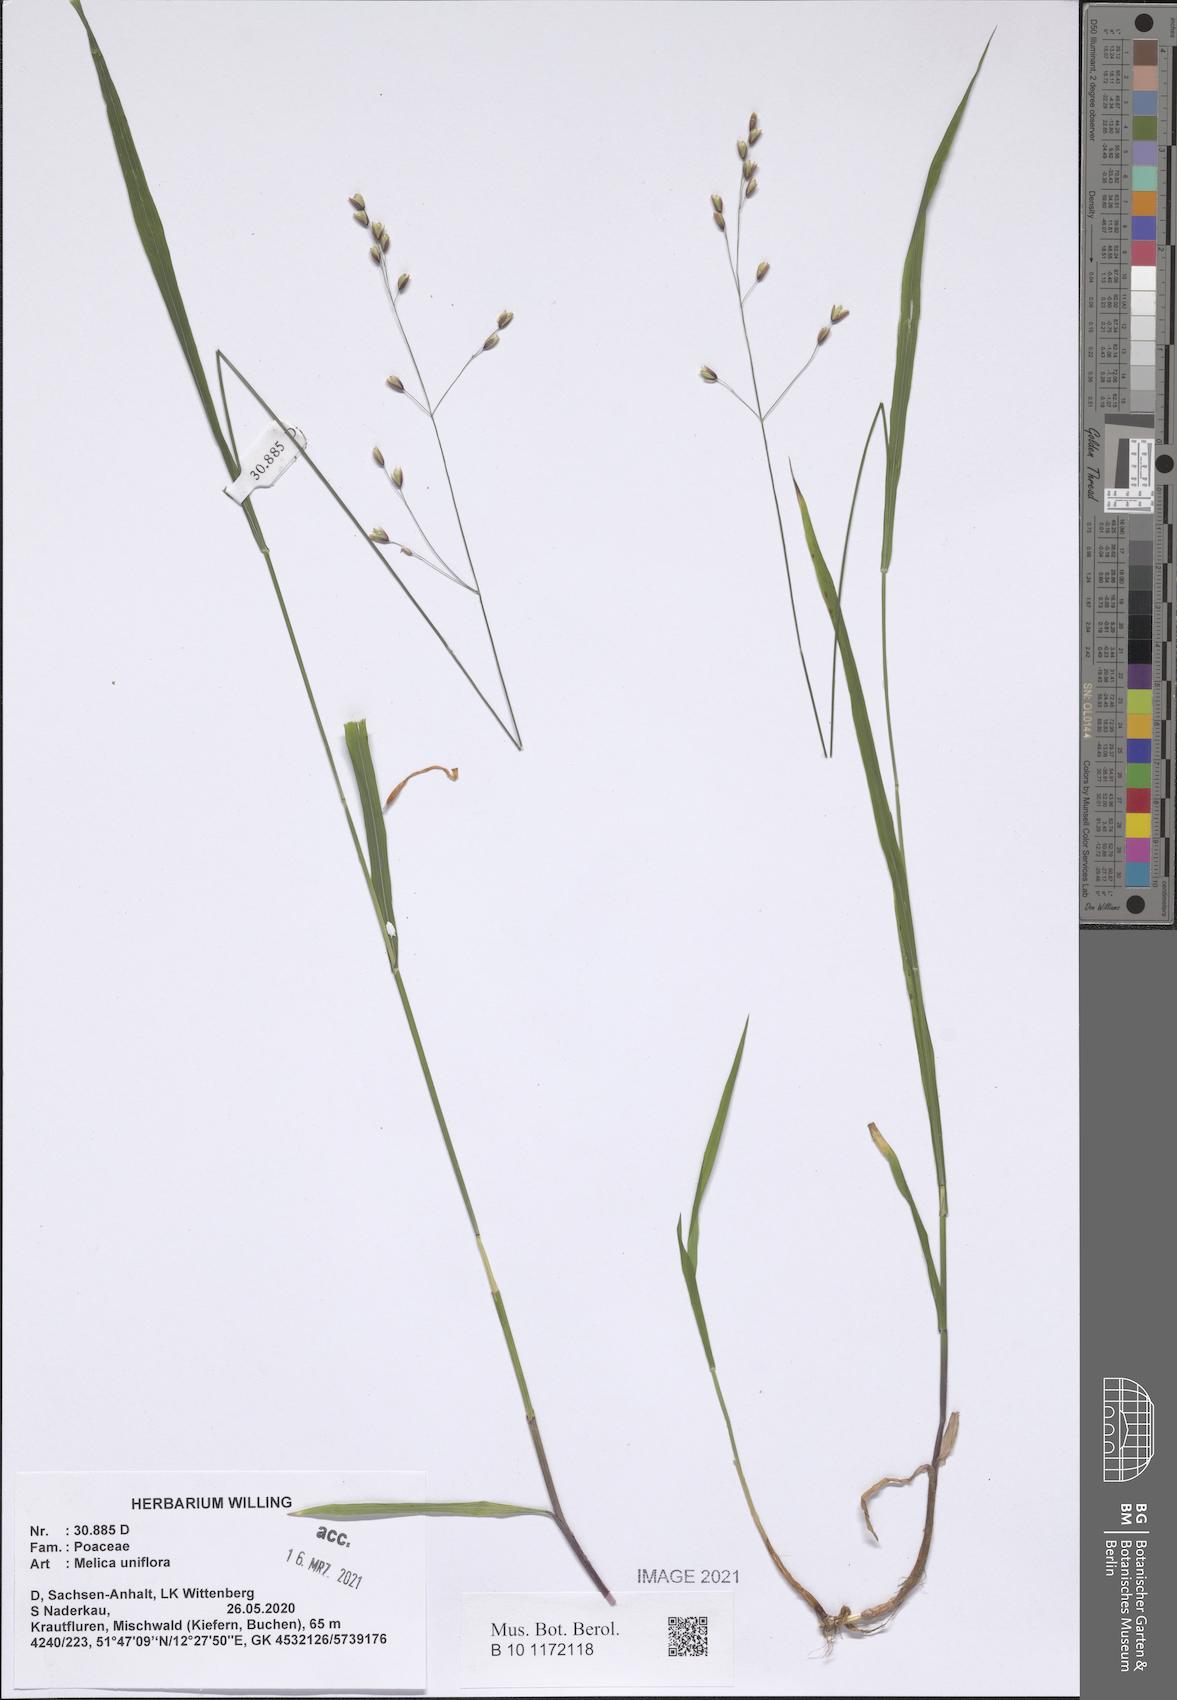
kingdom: Plantae
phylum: Tracheophyta
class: Liliopsida
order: Poales
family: Poaceae
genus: Melica
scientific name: Melica uniflora
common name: Wood melick
